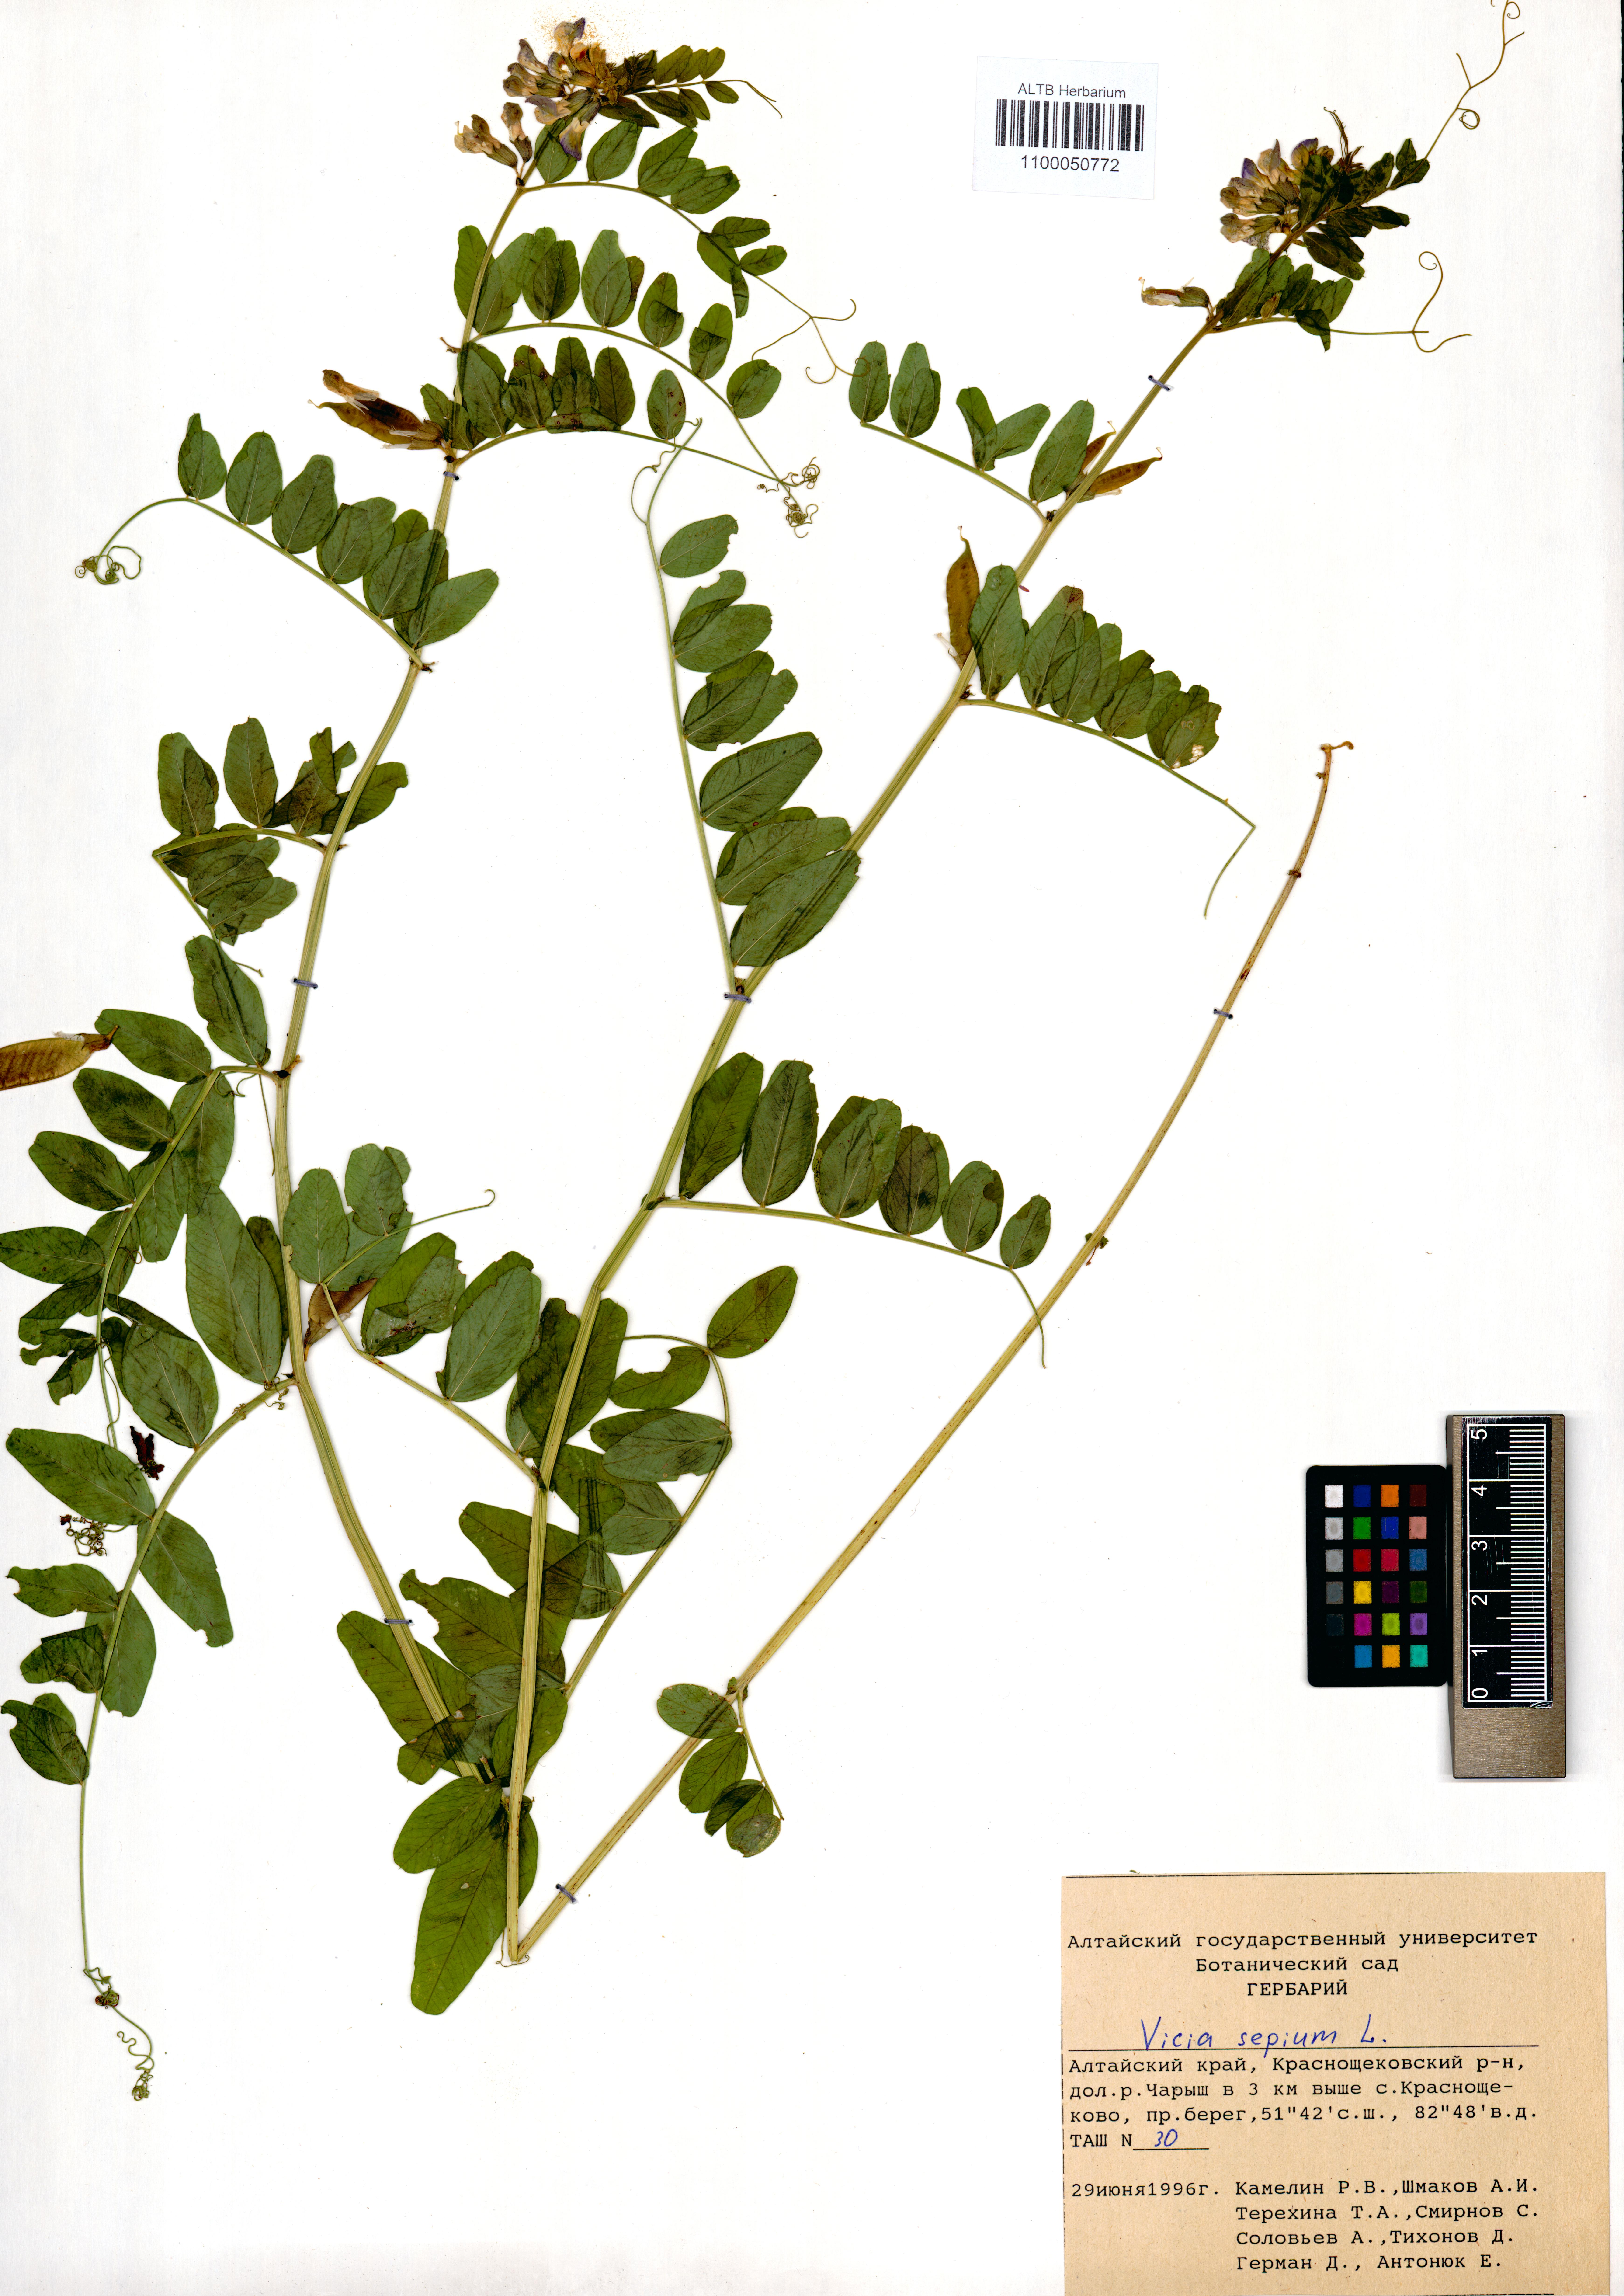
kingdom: Plantae
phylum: Tracheophyta
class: Magnoliopsida
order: Fabales
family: Fabaceae
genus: Vicia
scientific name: Vicia sepium
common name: Bush vetch
